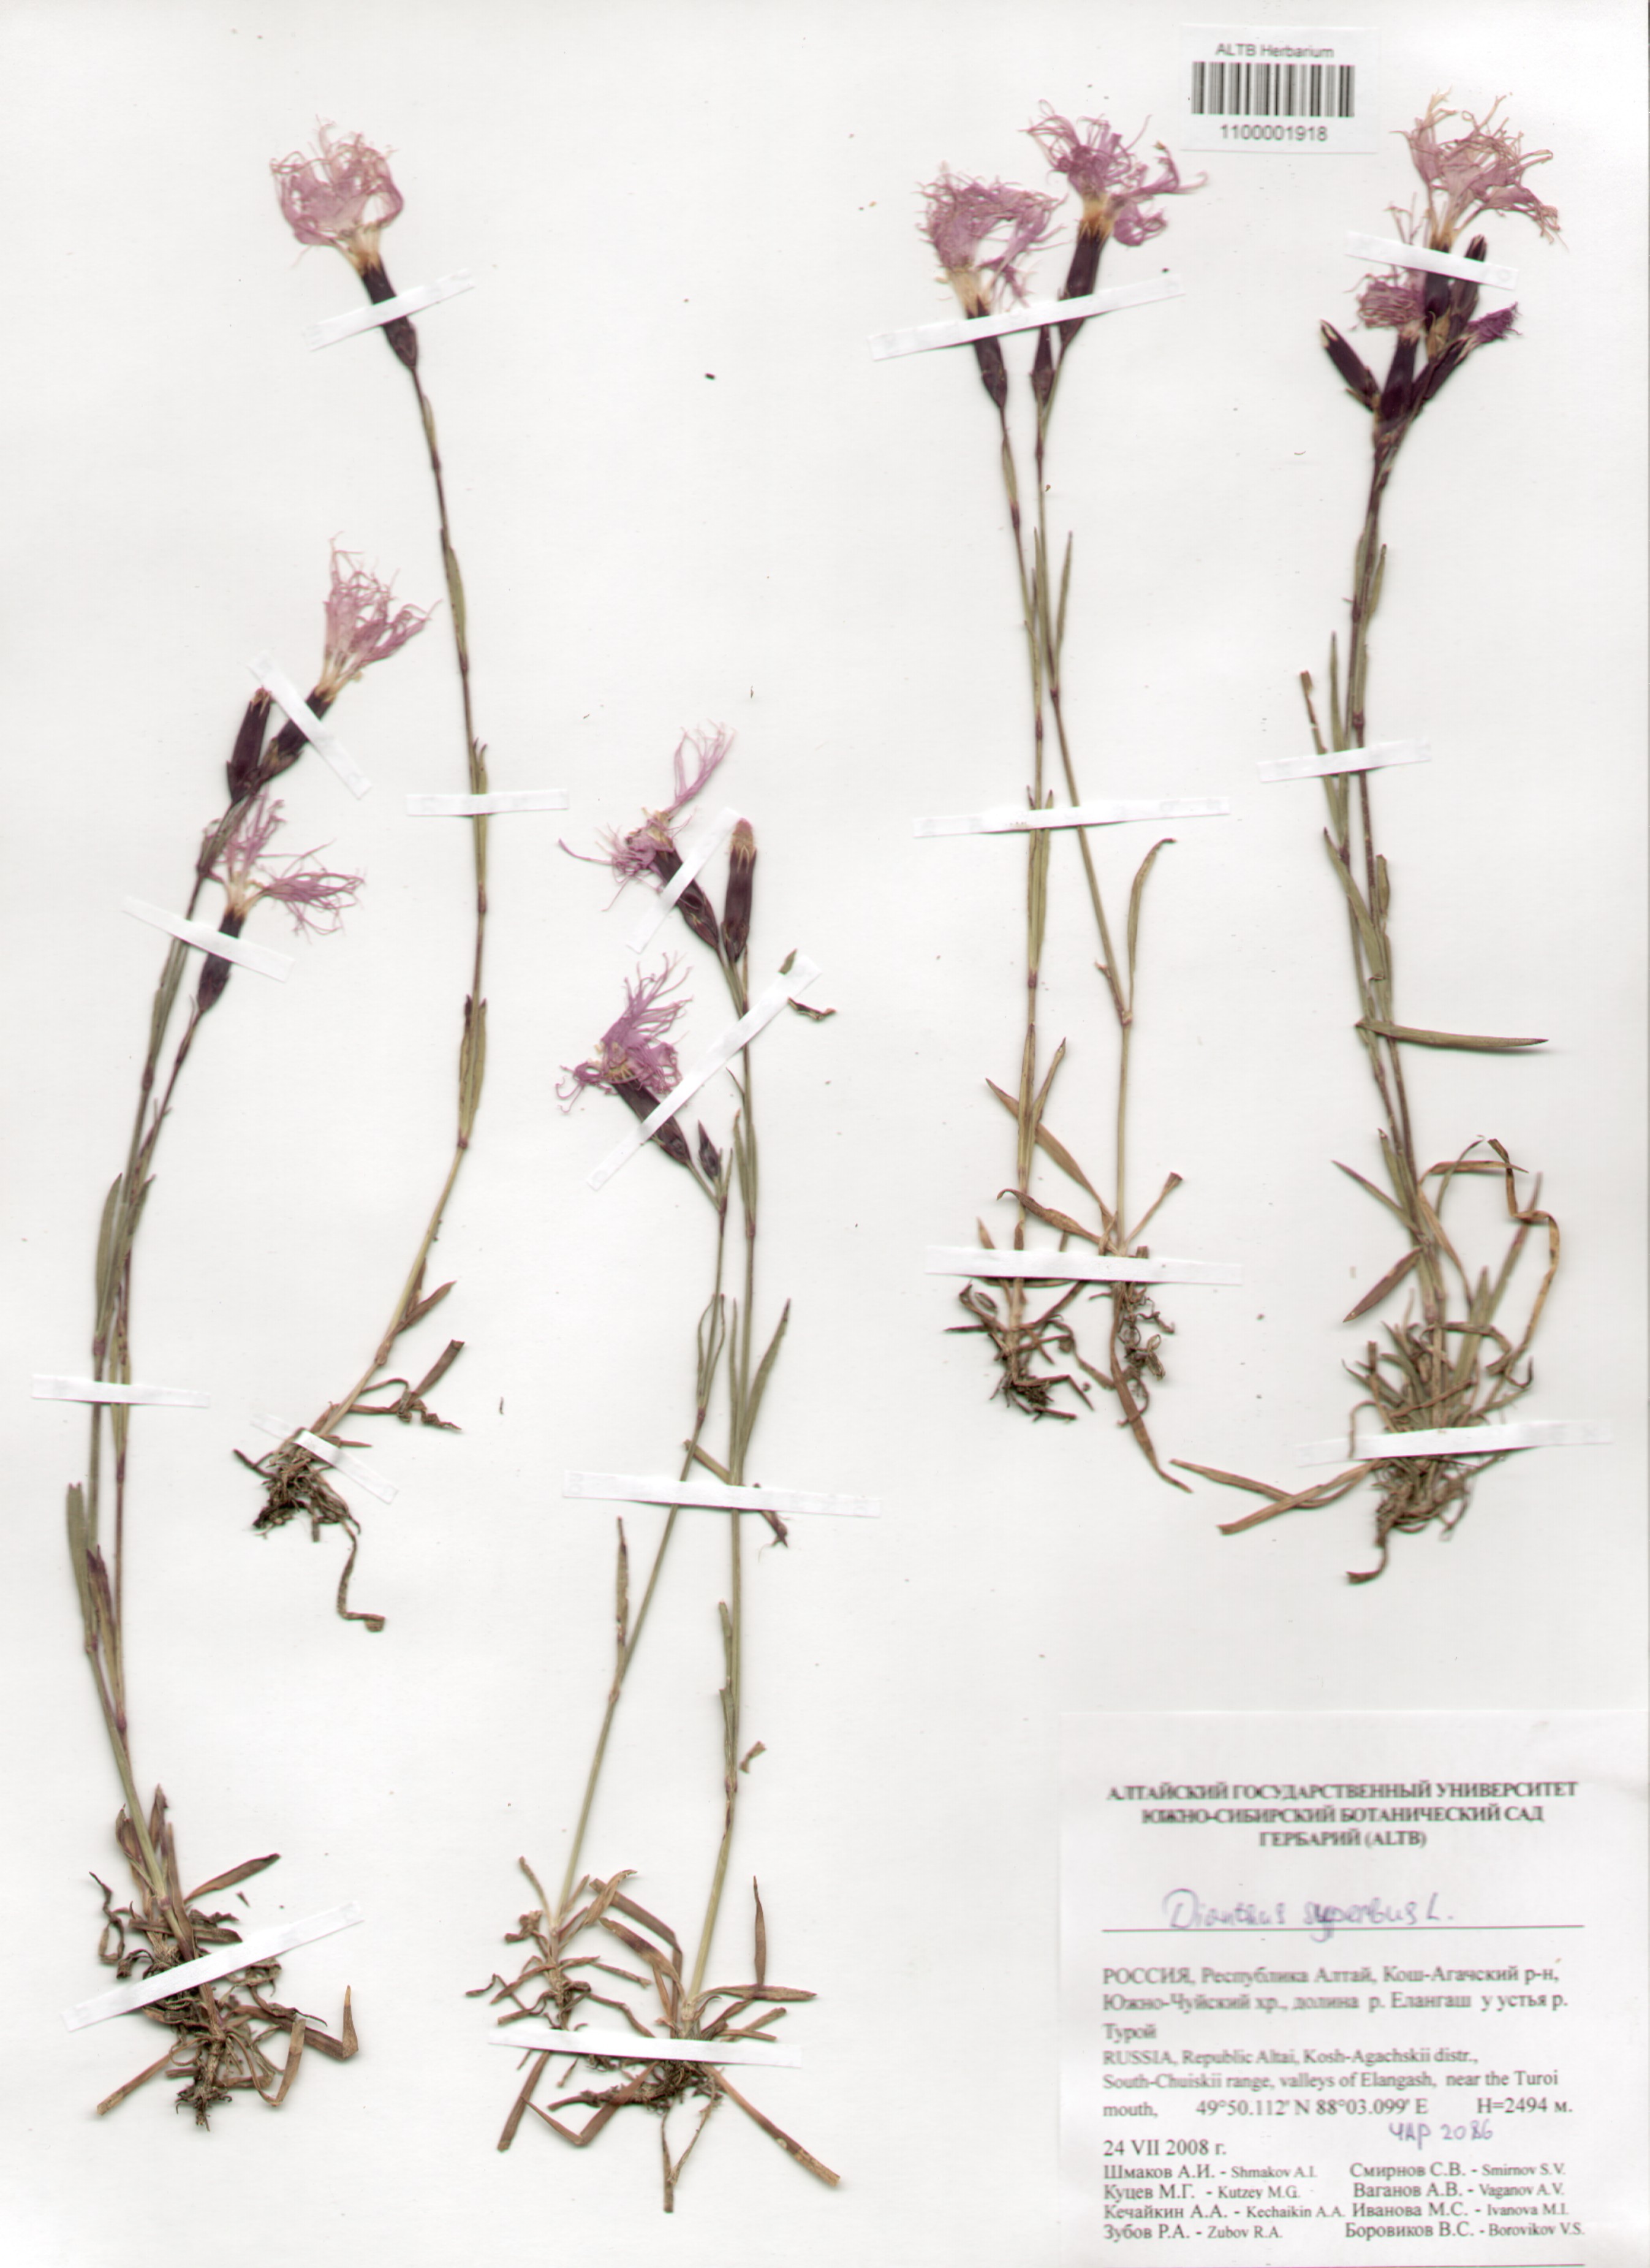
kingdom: Plantae
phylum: Tracheophyta
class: Magnoliopsida
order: Caryophyllales
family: Caryophyllaceae
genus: Dianthus
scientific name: Dianthus superbus
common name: Fringed pink
